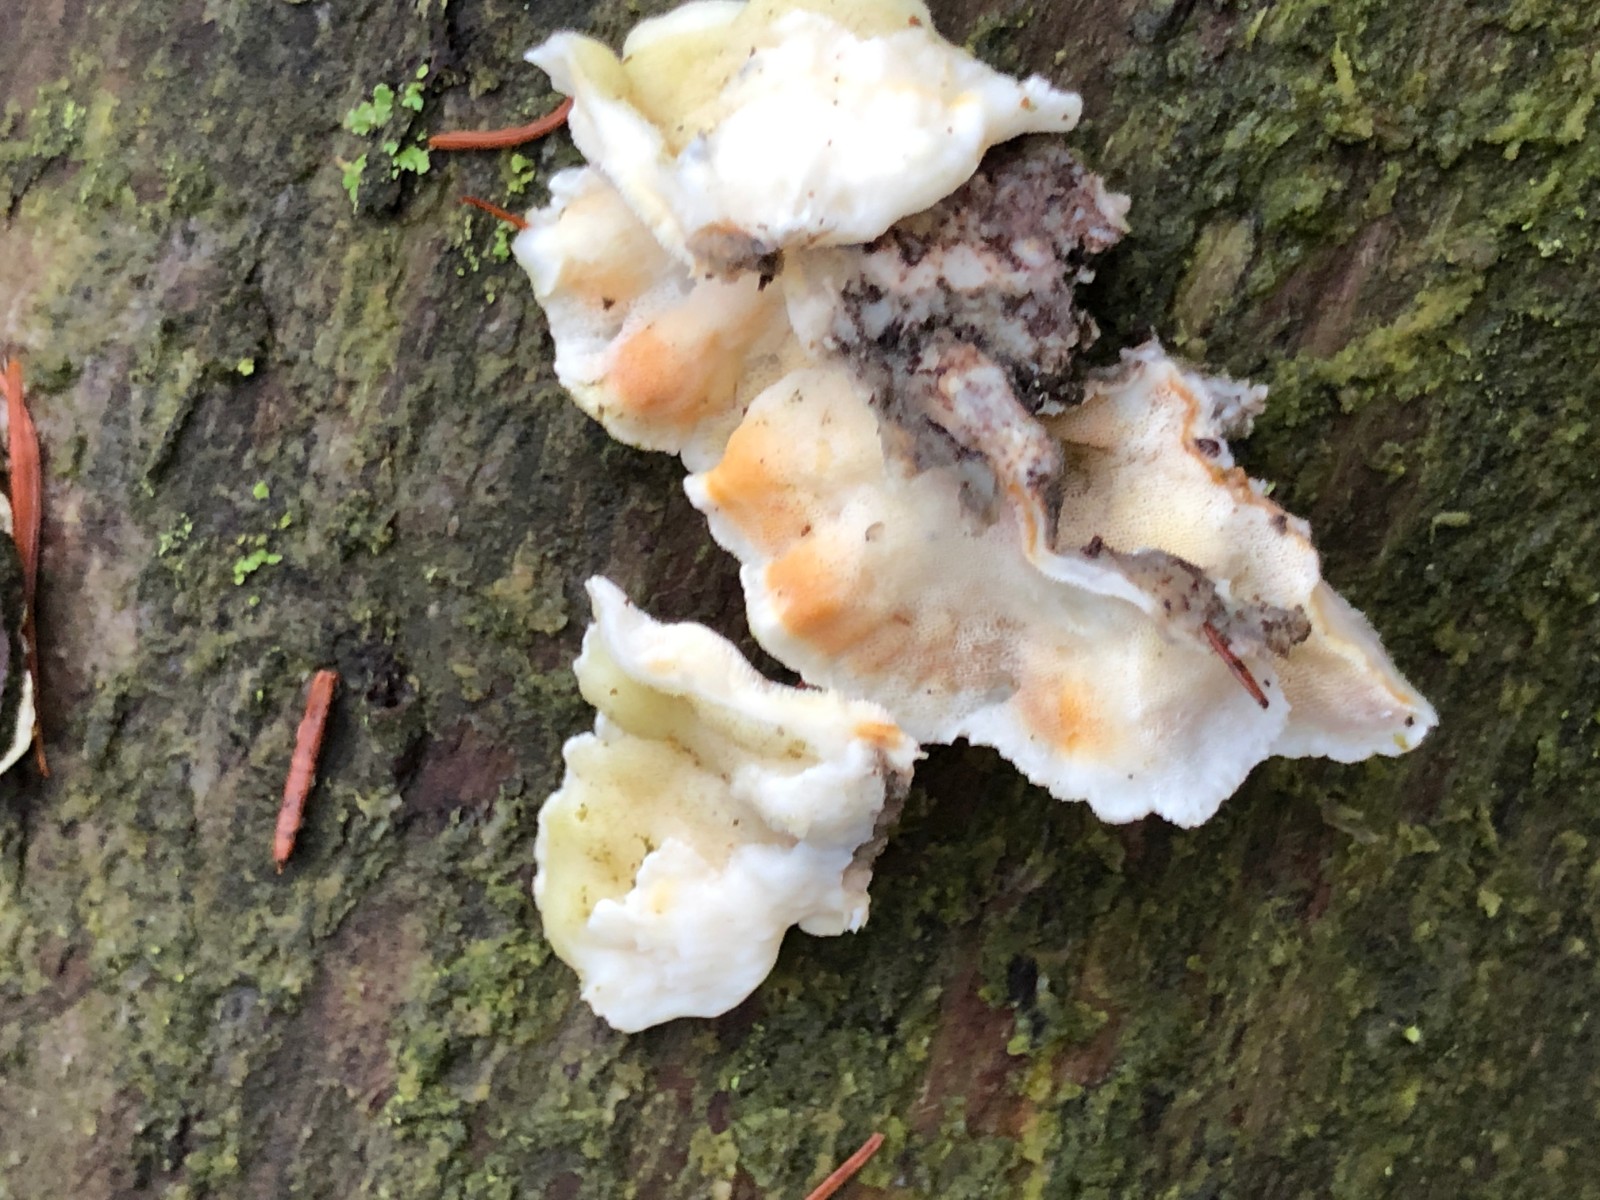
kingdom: Fungi
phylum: Basidiomycota
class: Agaricomycetes
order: Polyporales
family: Incrustoporiaceae
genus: Skeletocutis
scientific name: Skeletocutis amorpha
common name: orange krystalporesvamp
